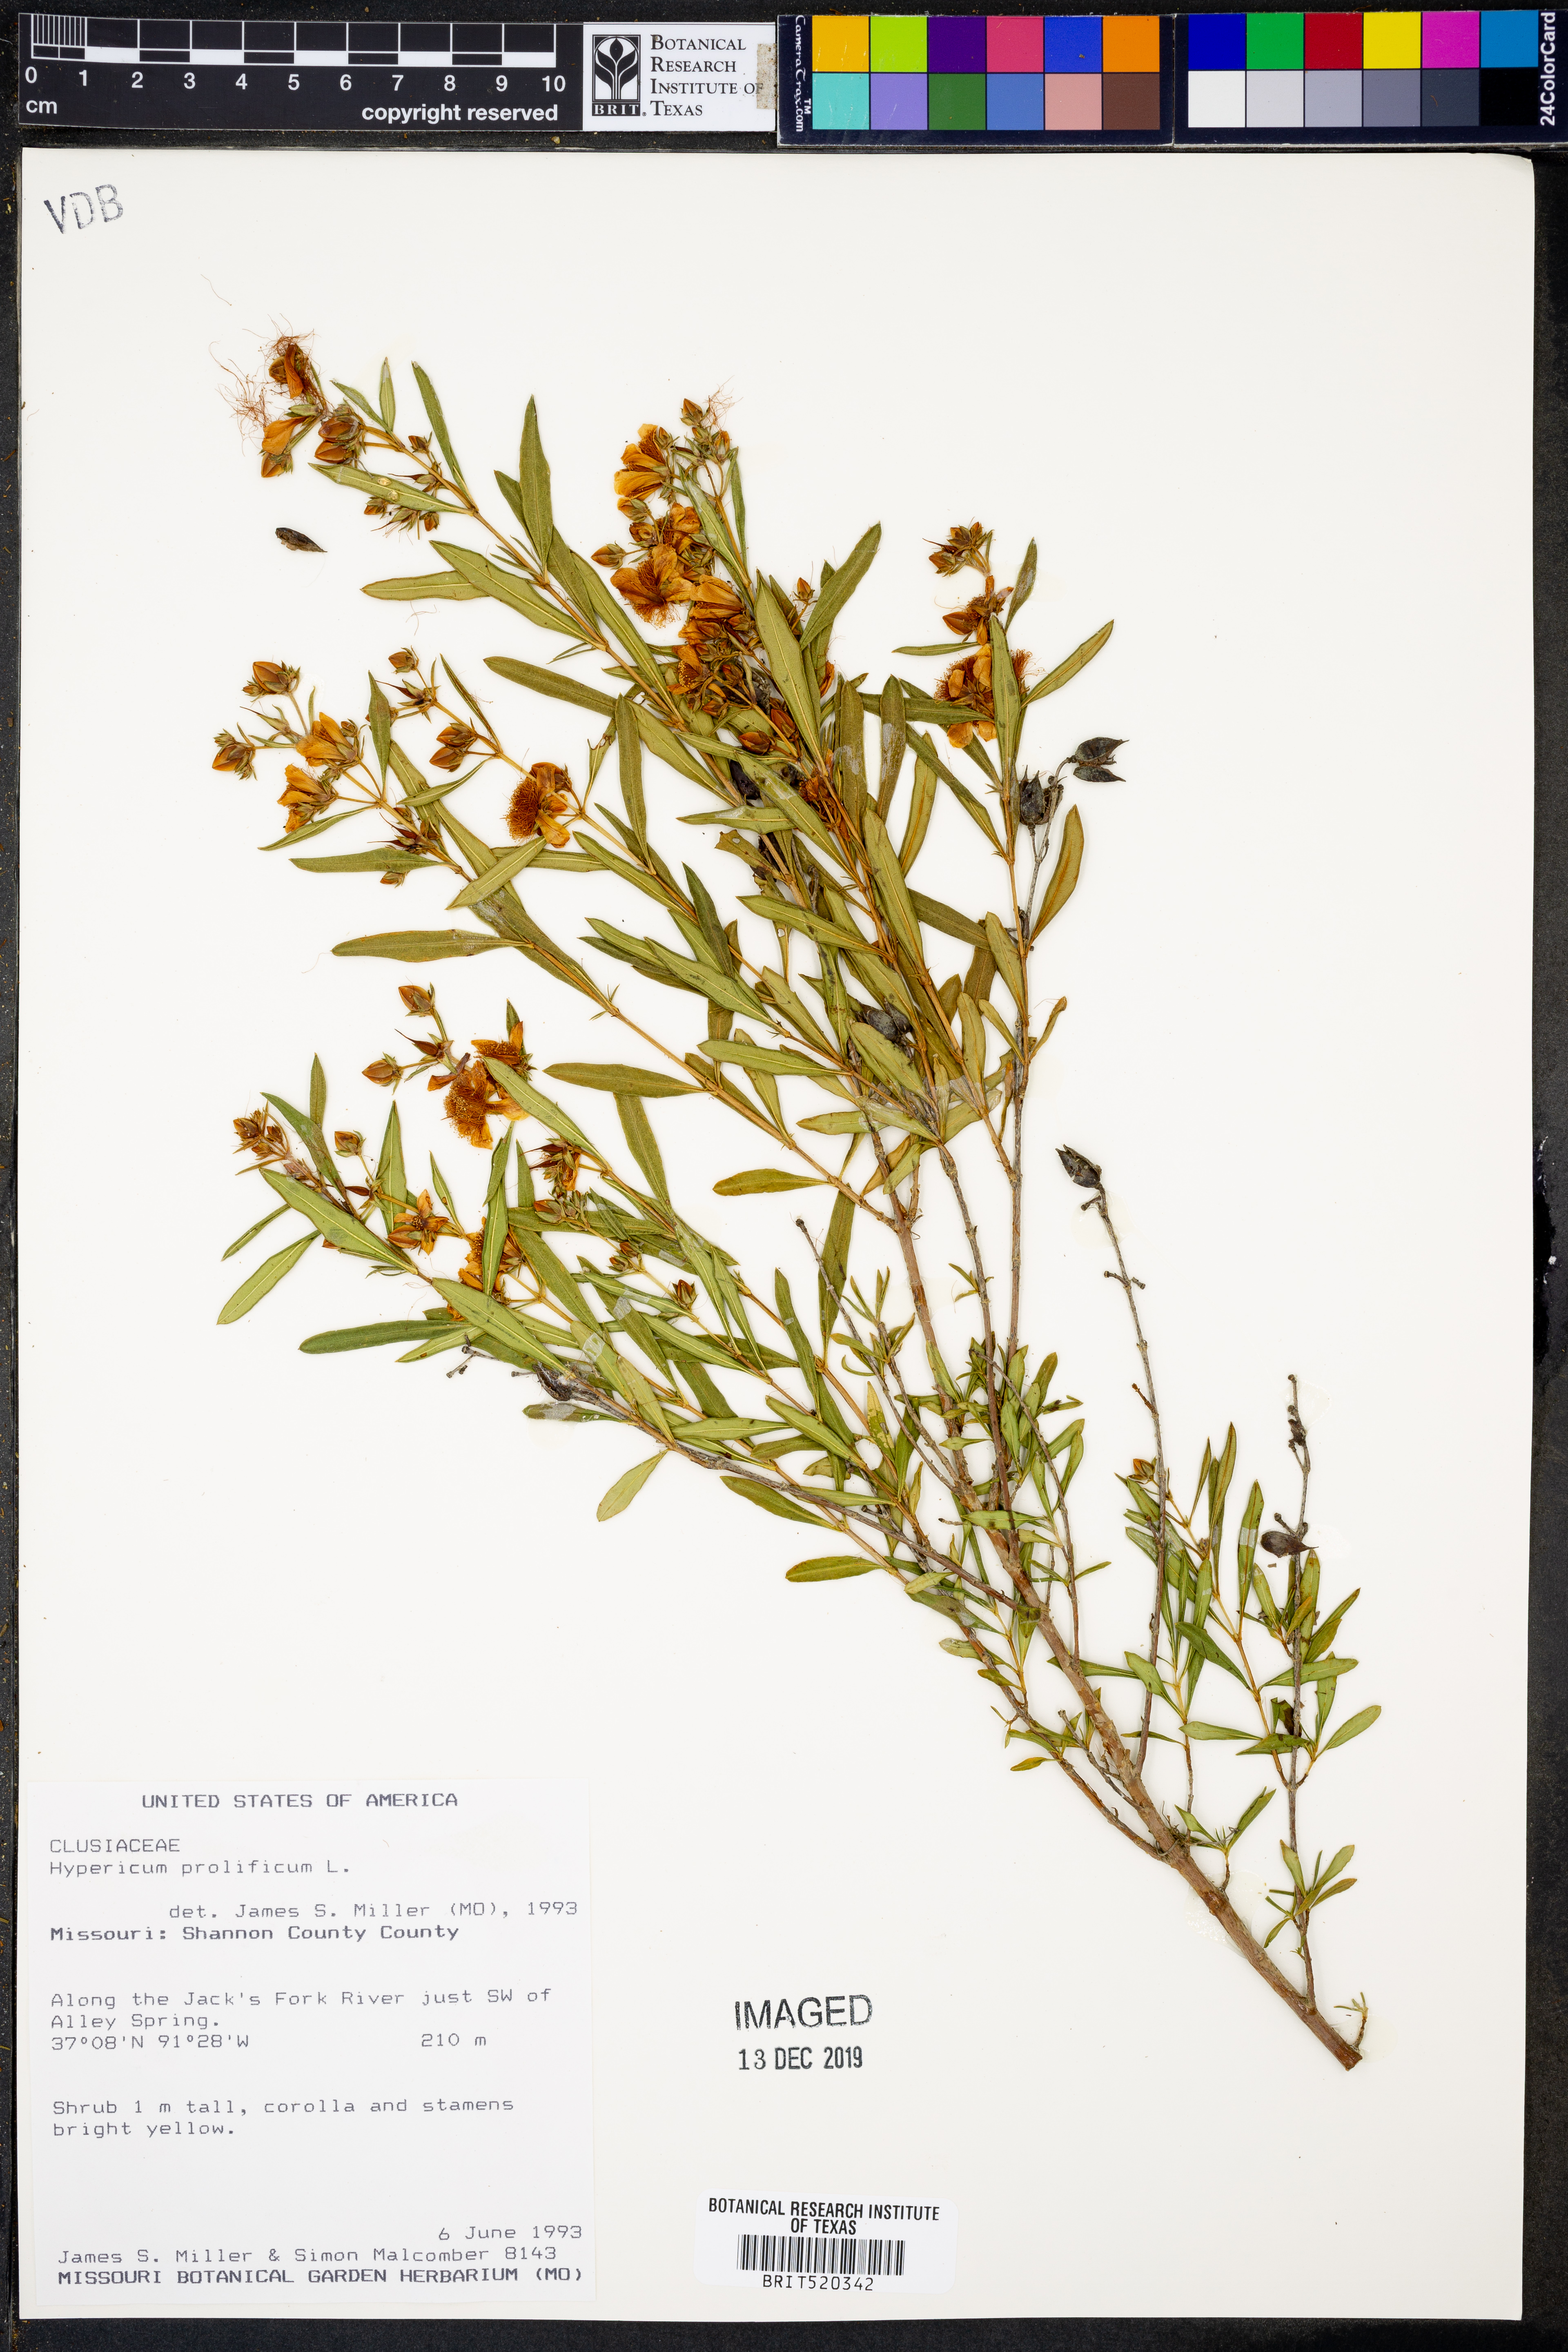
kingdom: Plantae
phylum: Tracheophyta
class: Magnoliopsida
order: Malpighiales
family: Hypericaceae
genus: Hypericum
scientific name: Hypericum prolificum
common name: Shrubby st. john's-wort
